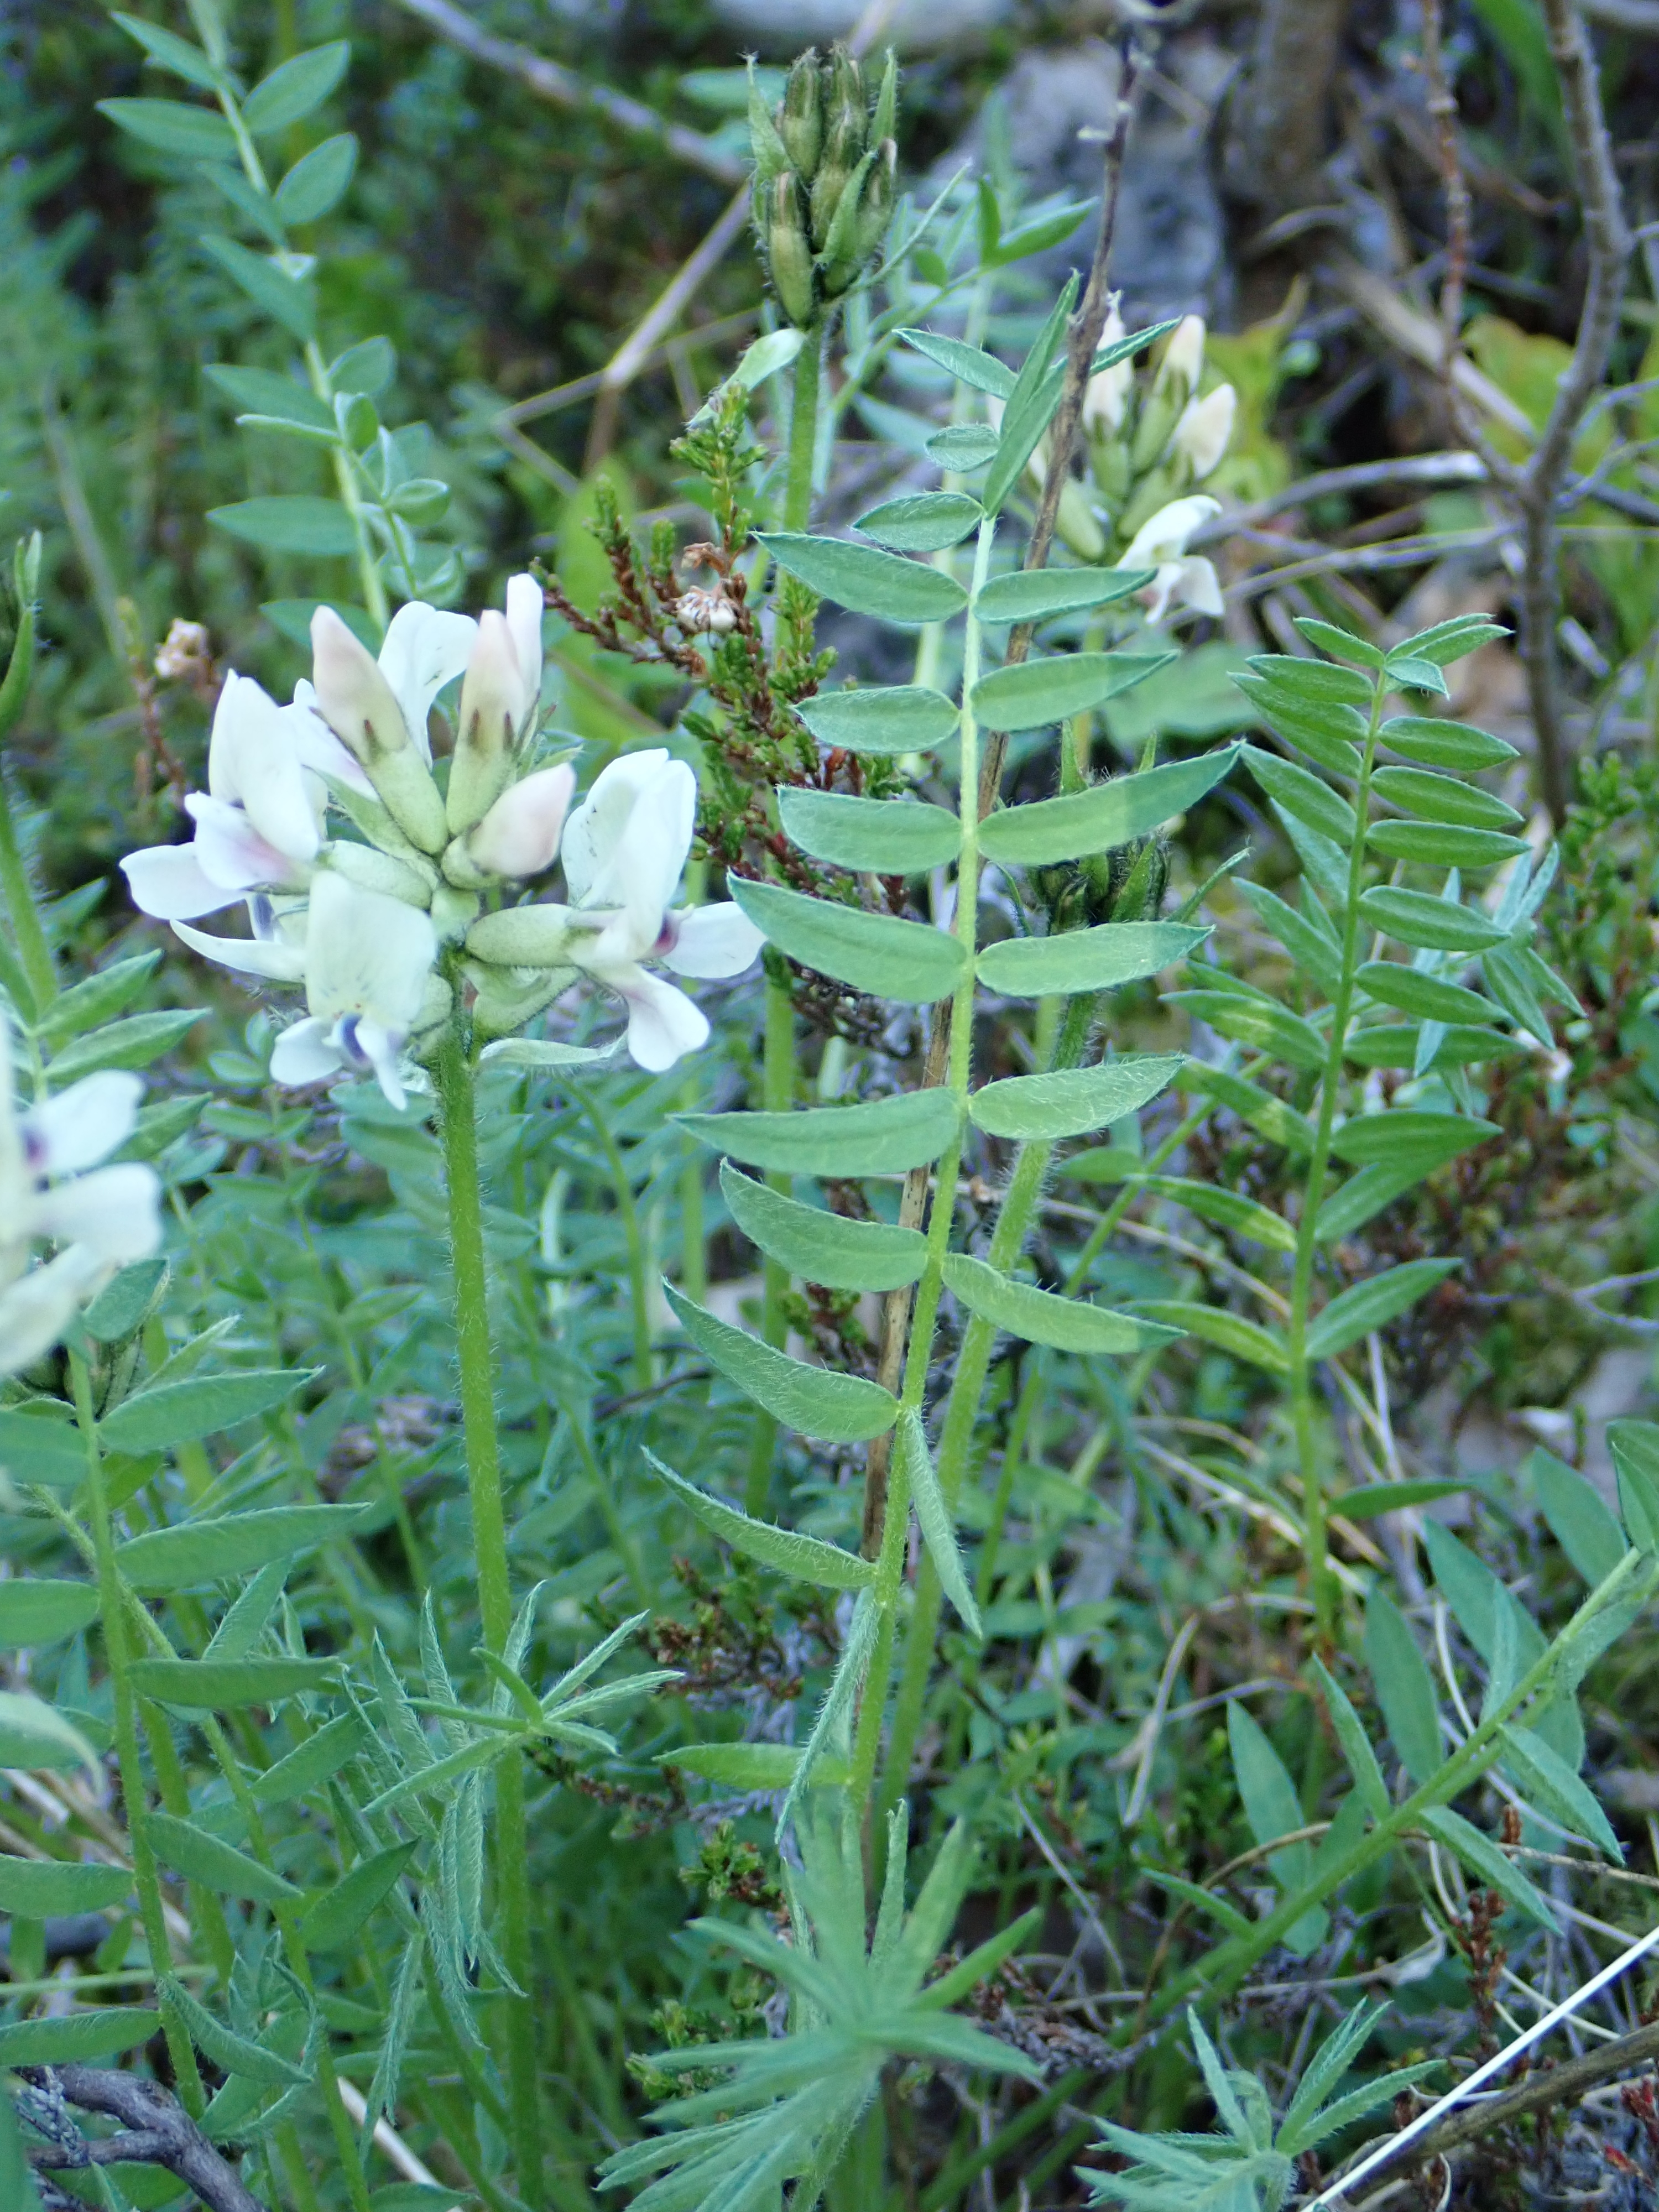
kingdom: Plantae
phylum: Tracheophyta
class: Magnoliopsida
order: Fabales
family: Fabaceae
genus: Oxytropis
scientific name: Oxytropis sordida
